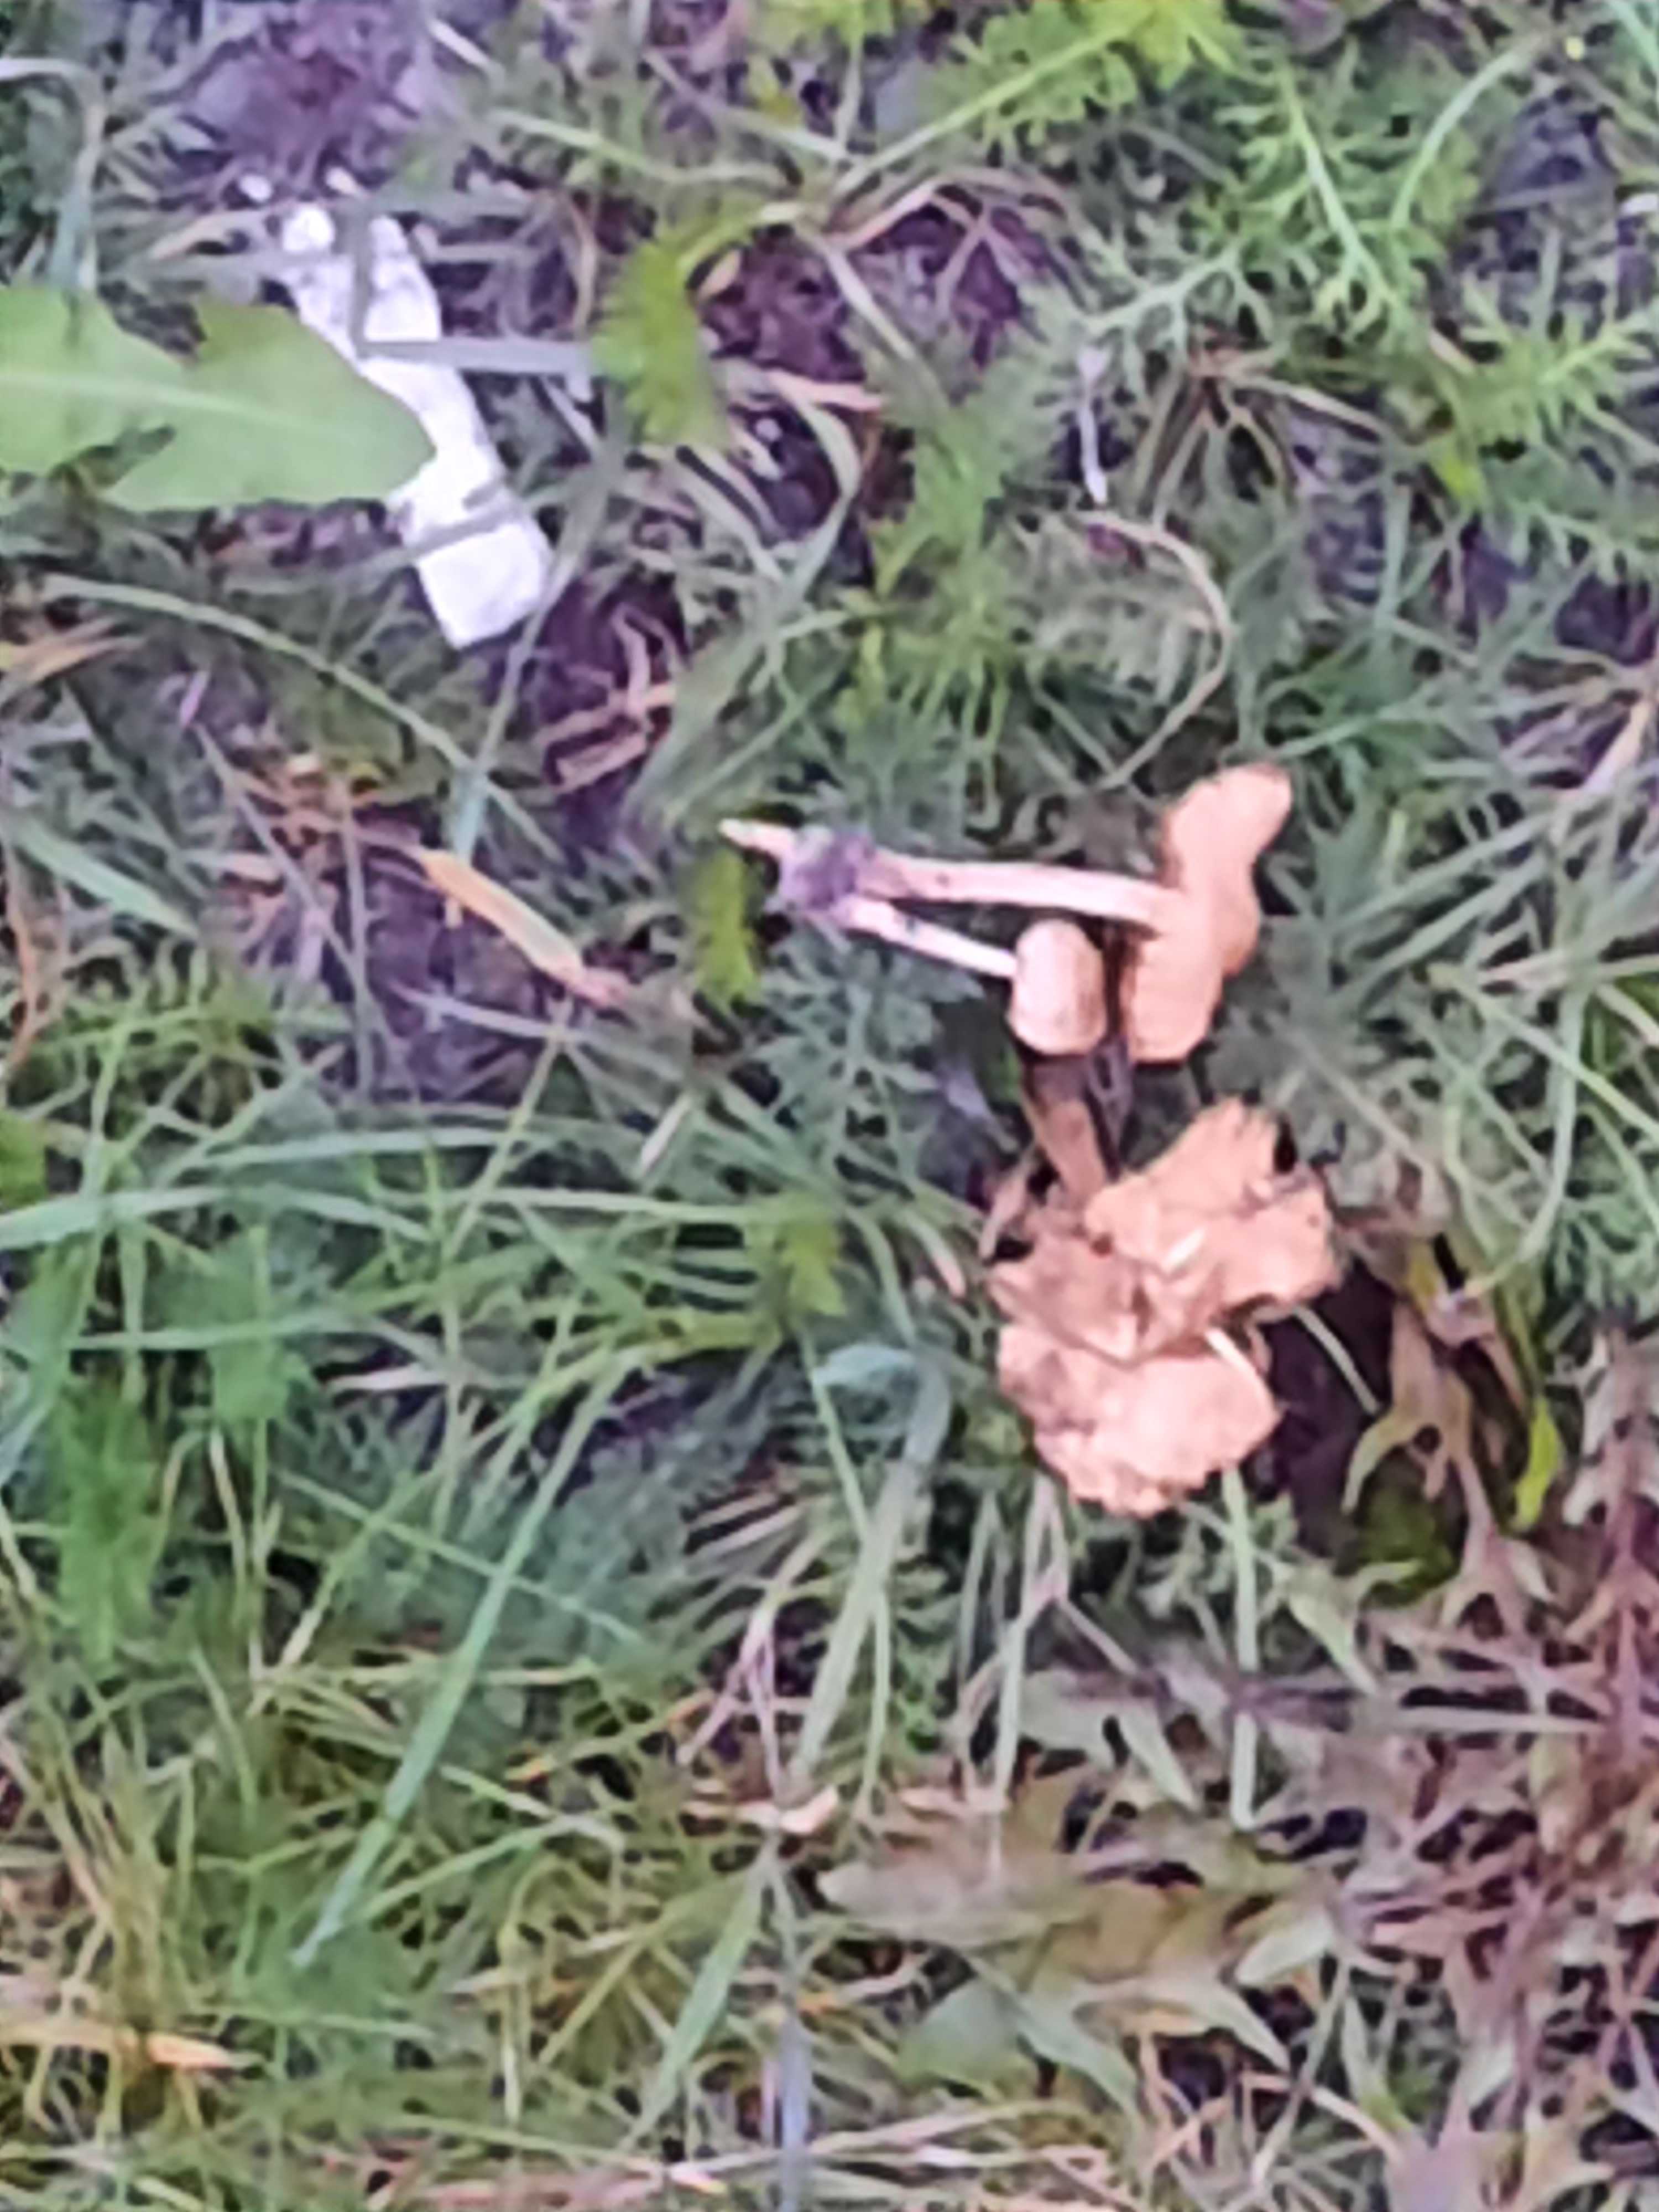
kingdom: Fungi
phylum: Basidiomycota
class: Agaricomycetes
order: Agaricales
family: Marasmiaceae
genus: Marasmius
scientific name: Marasmius oreades
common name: elledans-bruskhat
